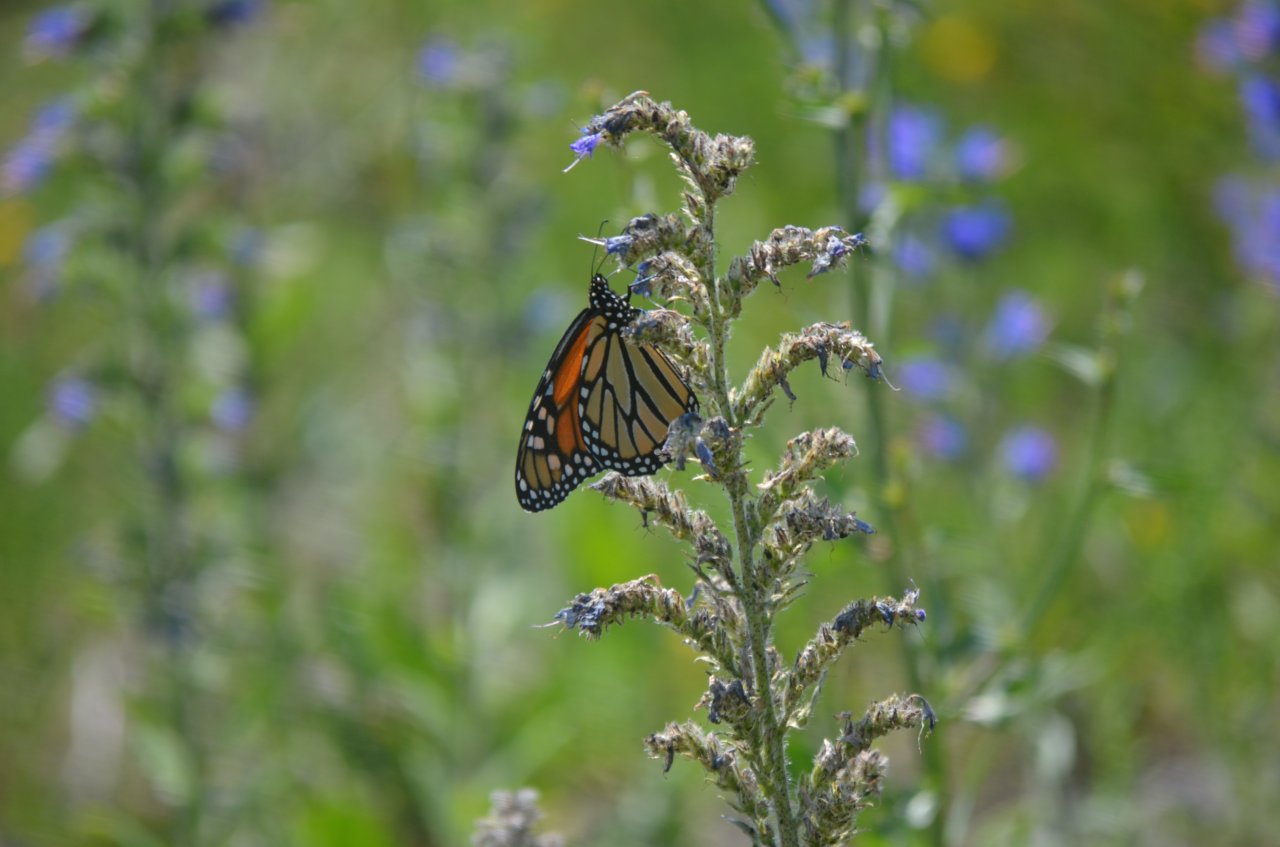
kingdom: Animalia
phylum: Arthropoda
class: Insecta
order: Lepidoptera
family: Nymphalidae
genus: Danaus
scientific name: Danaus plexippus
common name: Monarch
